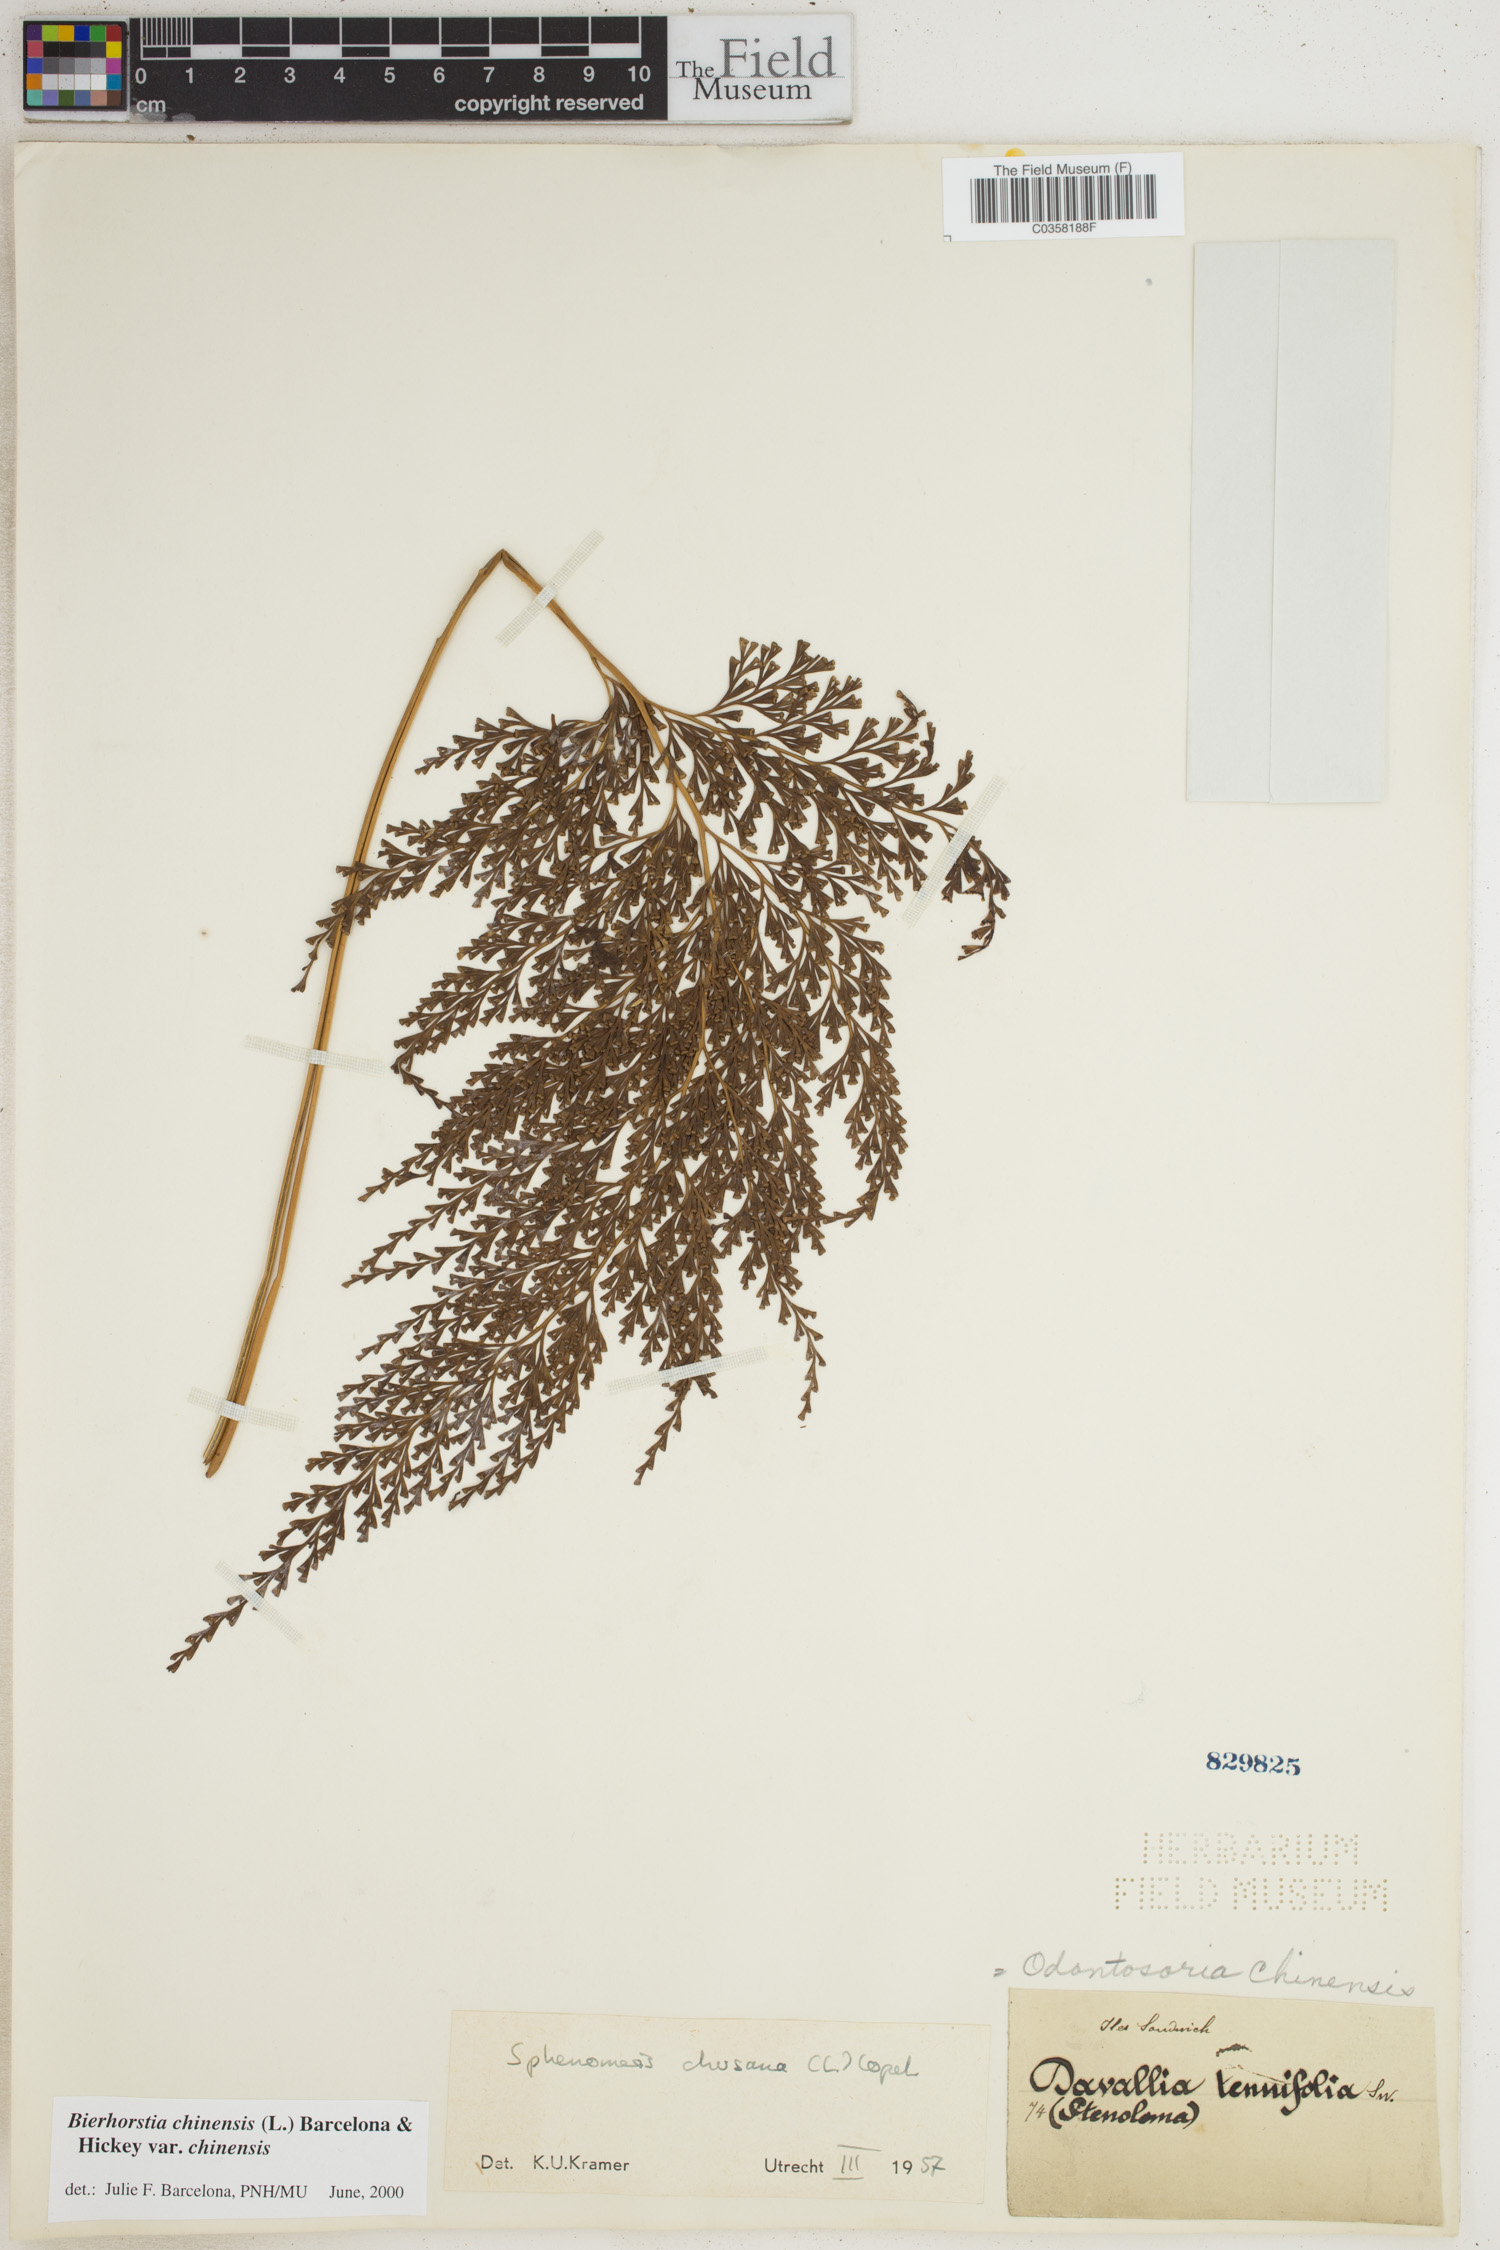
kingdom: Plantae
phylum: Tracheophyta
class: Polypodiopsida
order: Polypodiales
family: Lindsaeaceae
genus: Odontosoria
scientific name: Odontosoria chinensis
